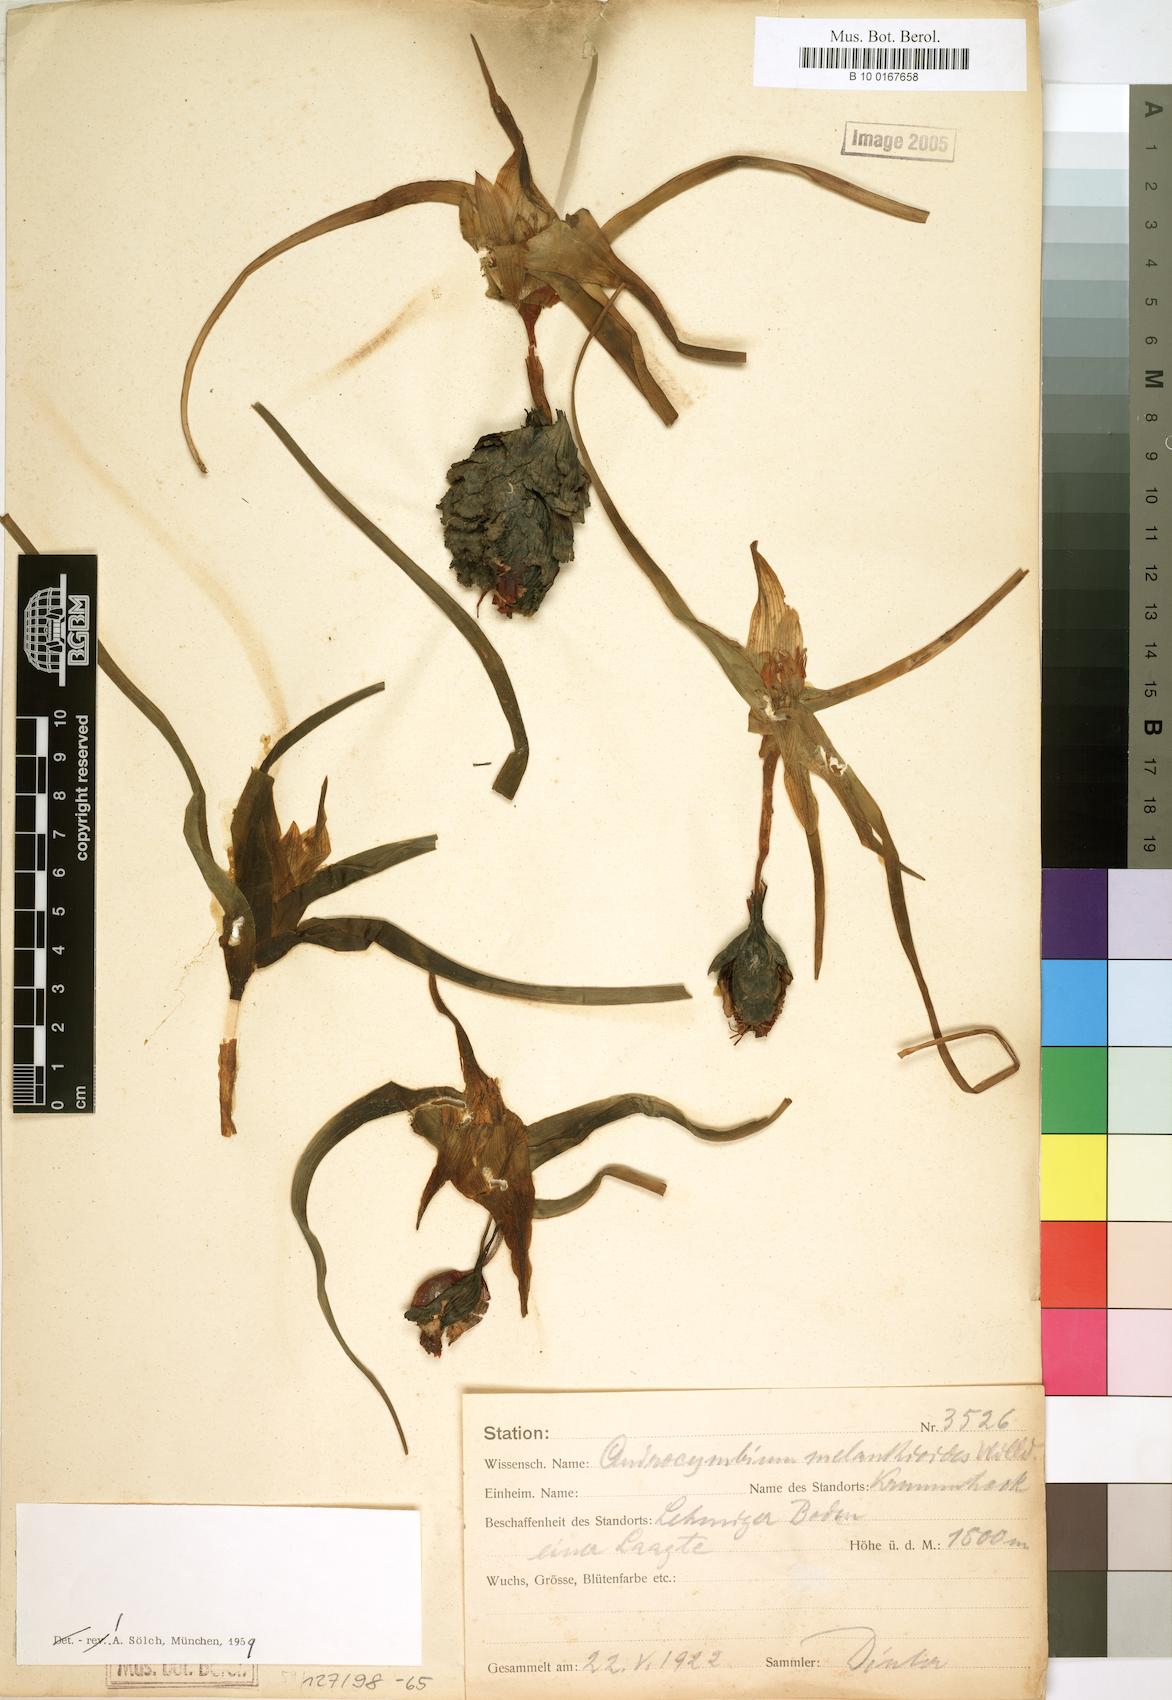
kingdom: Plantae
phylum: Tracheophyta
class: Liliopsida
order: Liliales
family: Colchicaceae
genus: Colchicum
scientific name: Colchicum melanthioides
